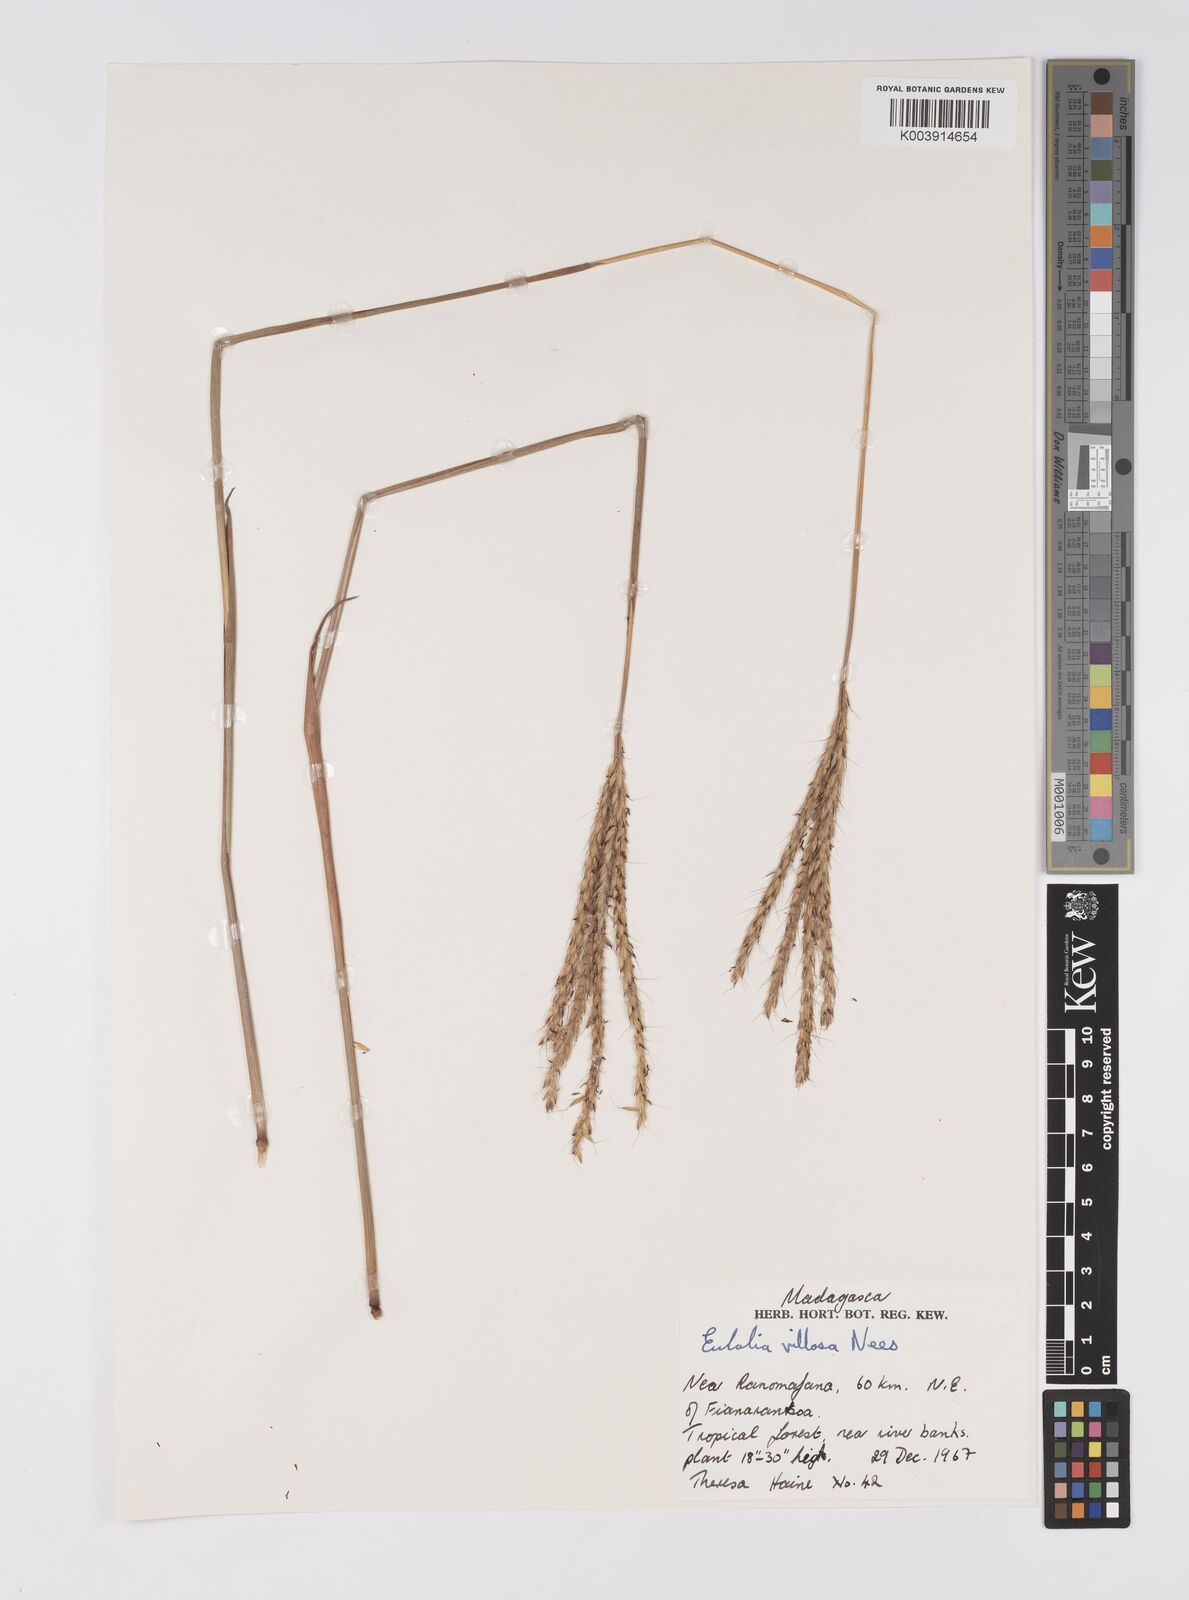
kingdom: Plantae
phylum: Tracheophyta
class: Liliopsida
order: Poales
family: Poaceae
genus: Eulalia
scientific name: Eulalia villosa
